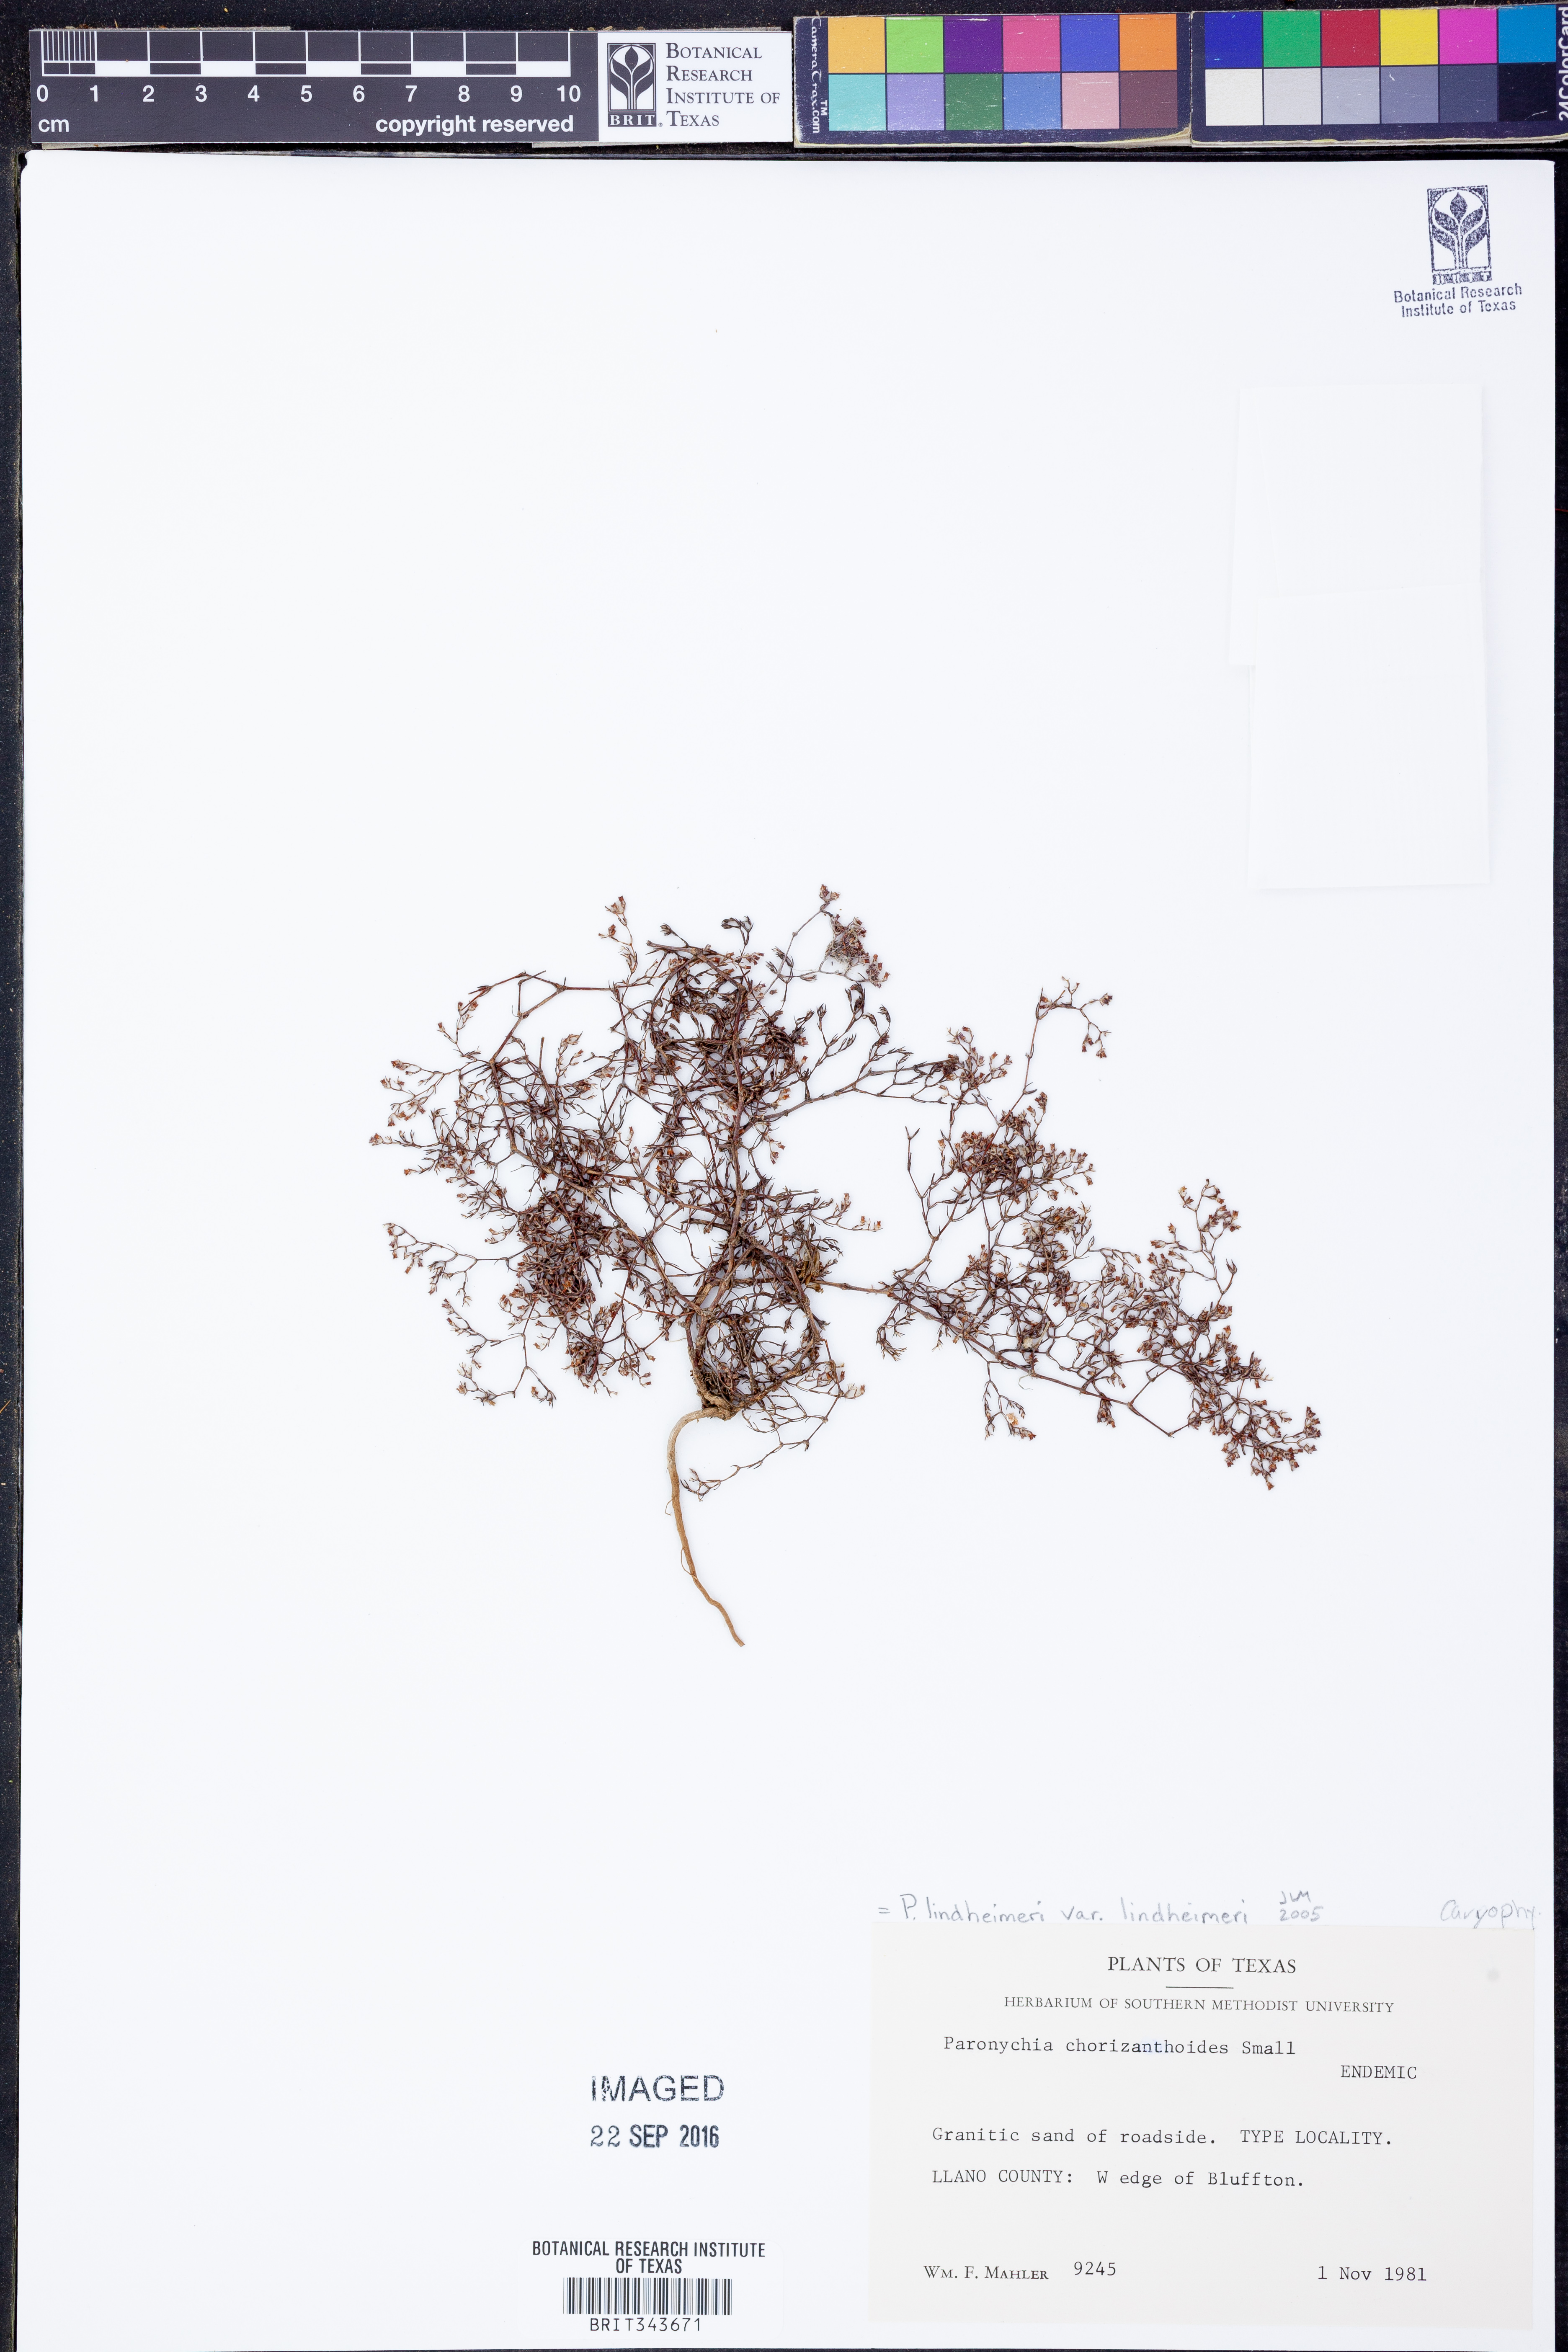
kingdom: Plantae
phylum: Tracheophyta
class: Magnoliopsida
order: Caryophyllales
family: Caryophyllaceae
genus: Paronychia
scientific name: Paronychia lindheimeri
